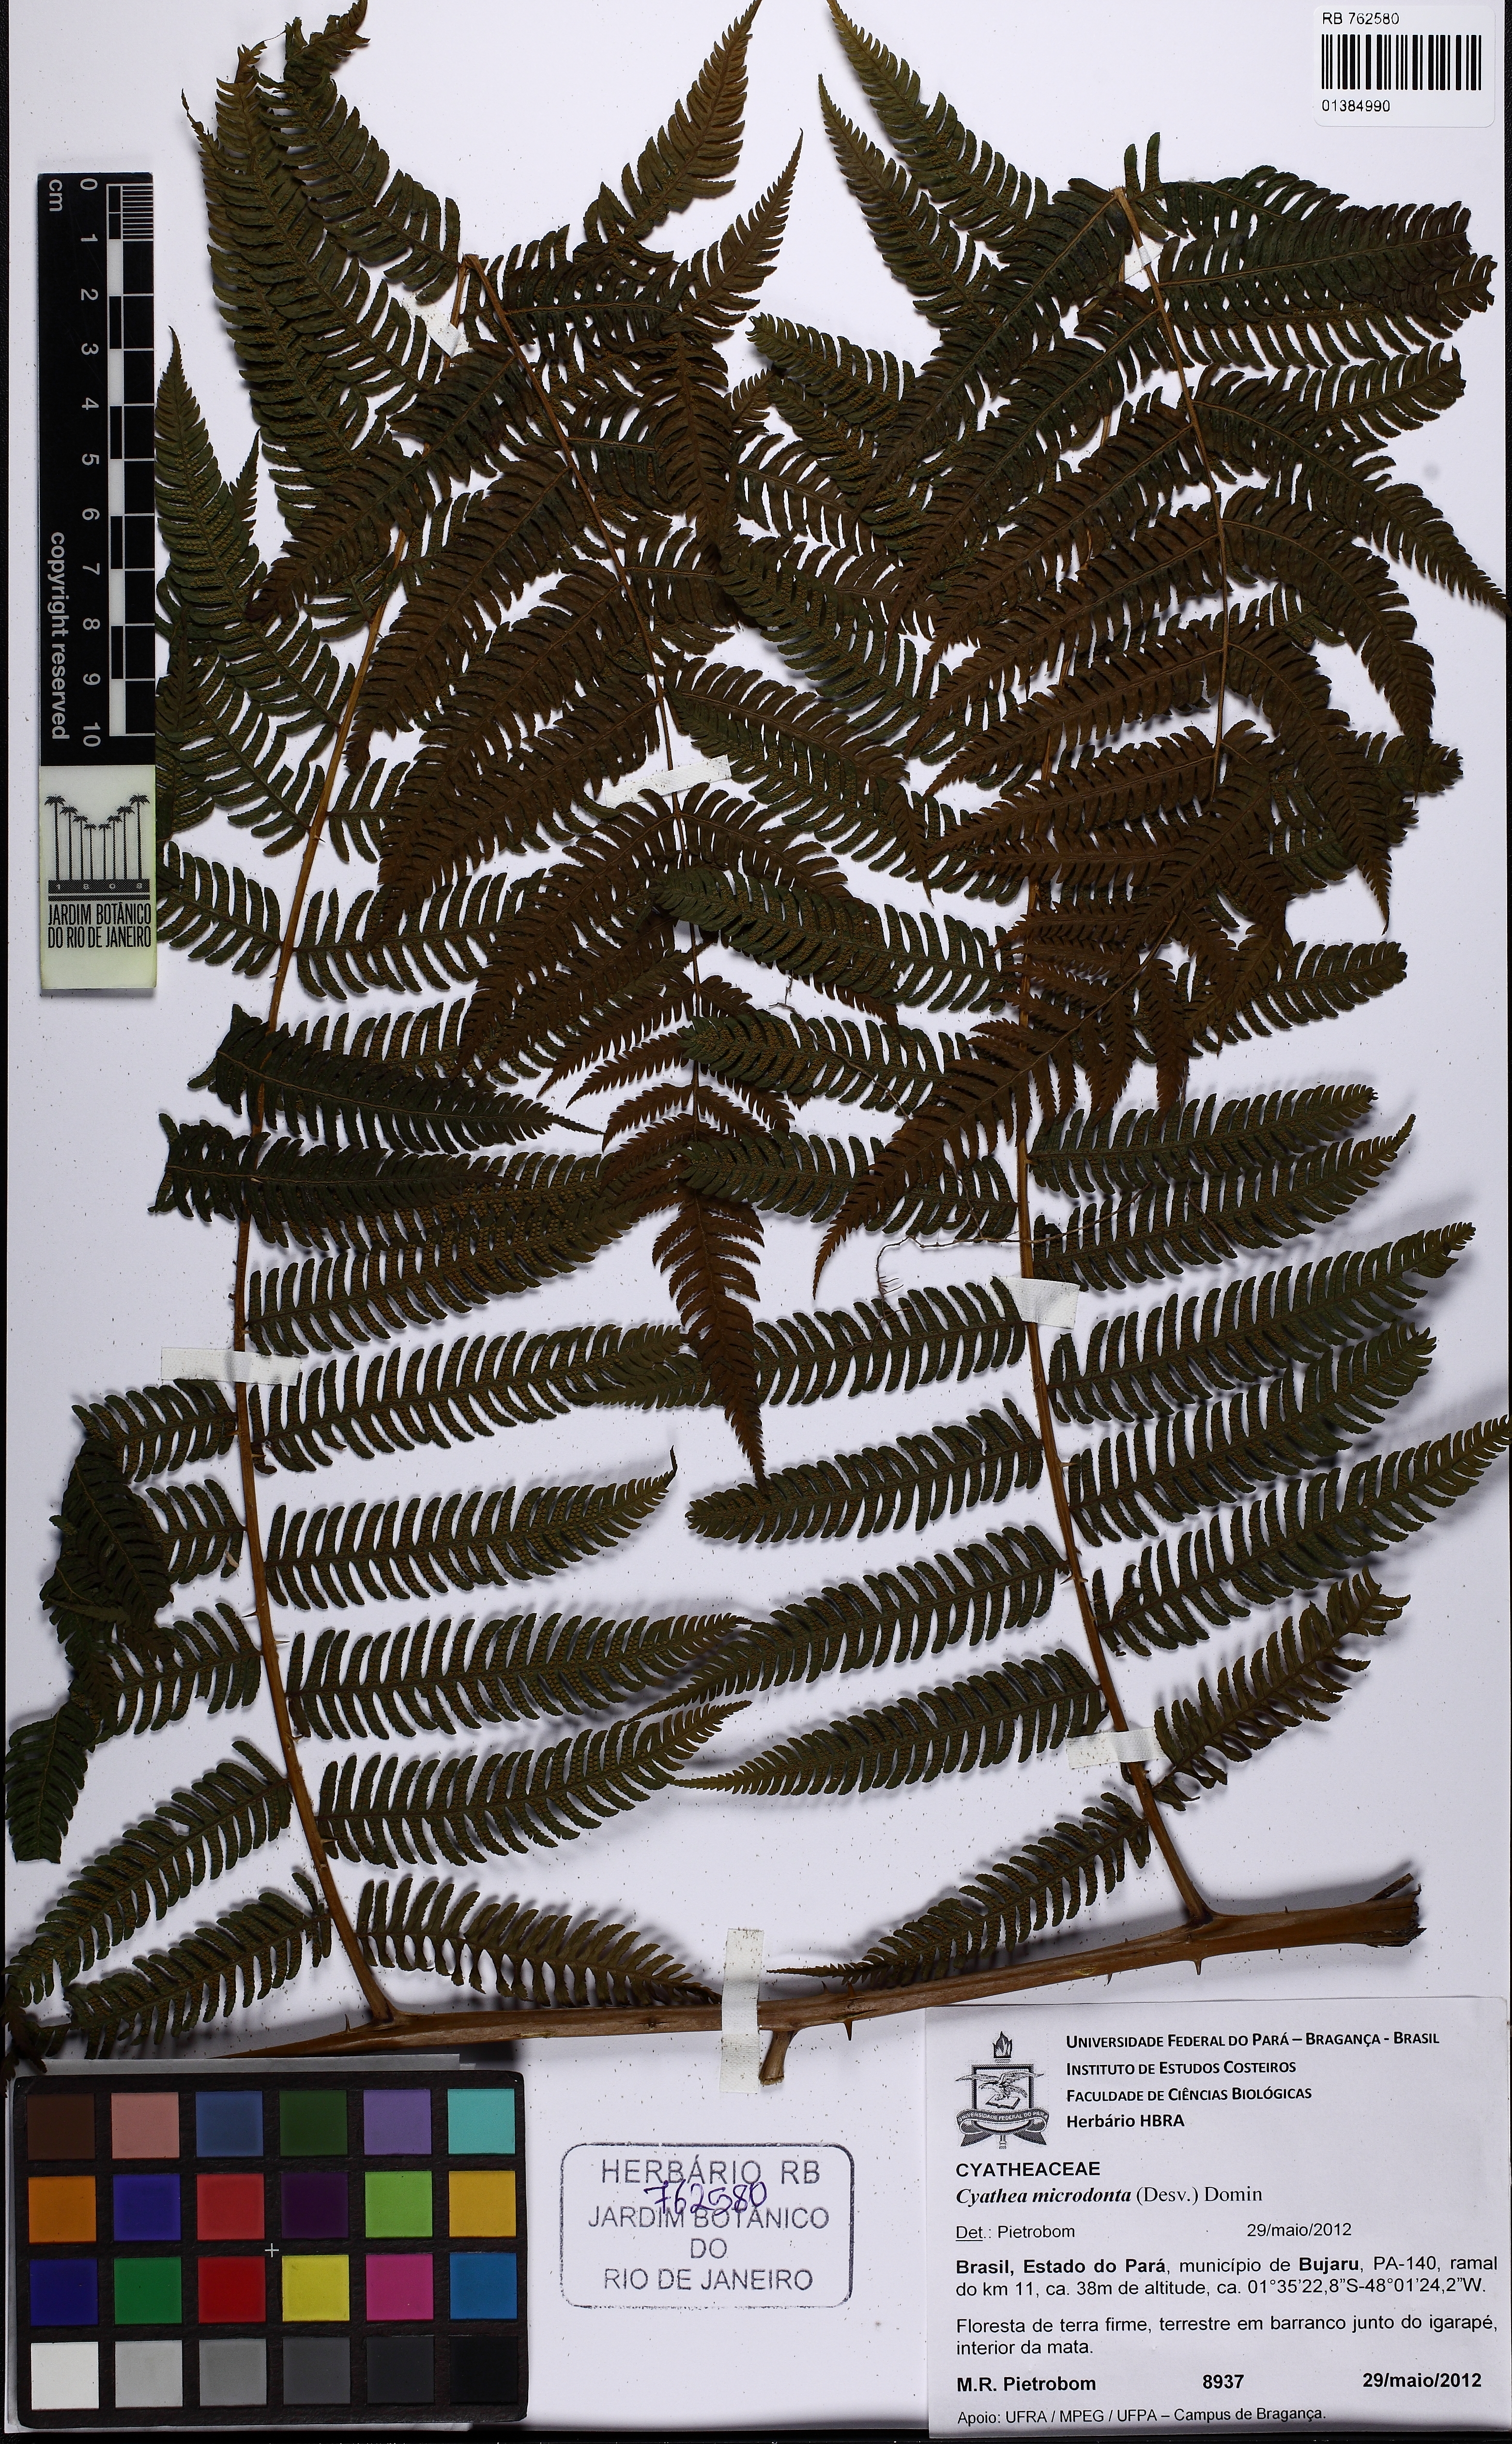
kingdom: Plantae
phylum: Tracheophyta
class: Polypodiopsida
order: Cyatheales
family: Cyatheaceae
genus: Cyathea
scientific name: Cyathea microdonta
